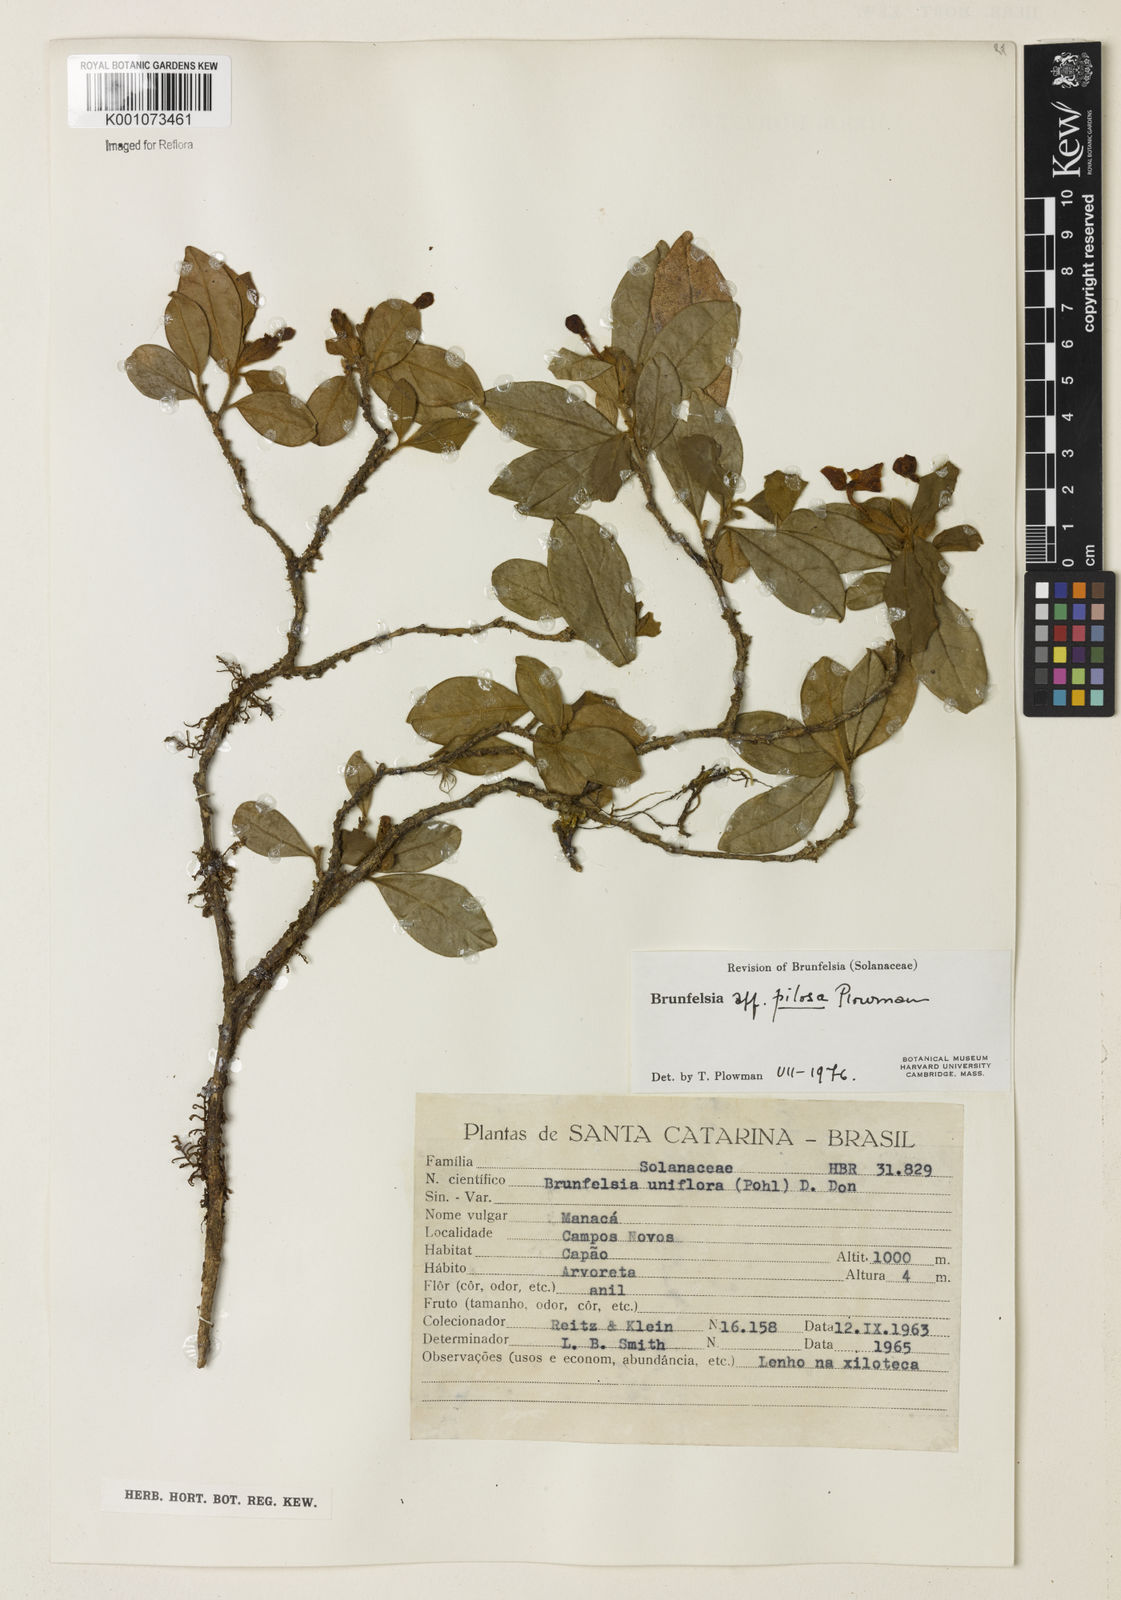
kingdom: Plantae
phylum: Tracheophyta
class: Magnoliopsida
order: Solanales
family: Solanaceae
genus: Brunfelsia
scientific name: Brunfelsia pilosa
